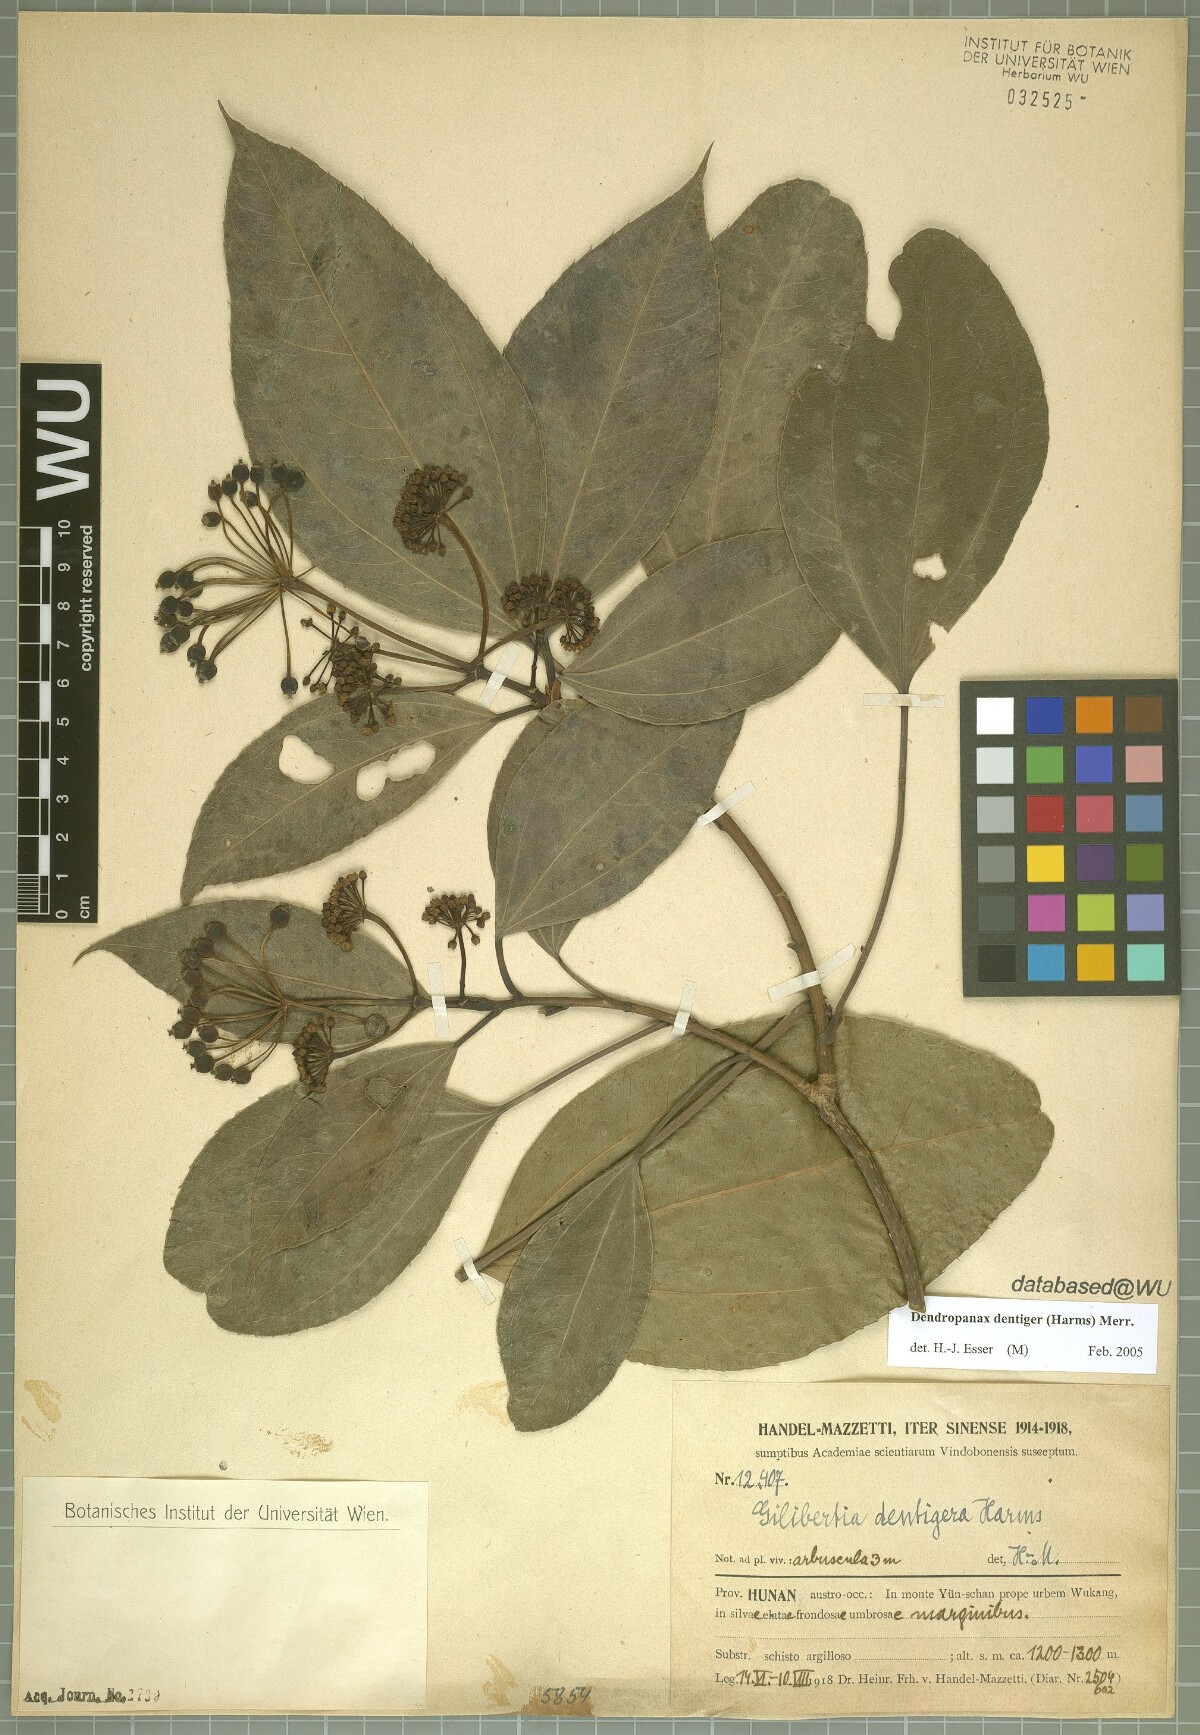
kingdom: Plantae
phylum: Tracheophyta
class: Magnoliopsida
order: Apiales
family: Araliaceae
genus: Dendropanax
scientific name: Dendropanax dentiger
